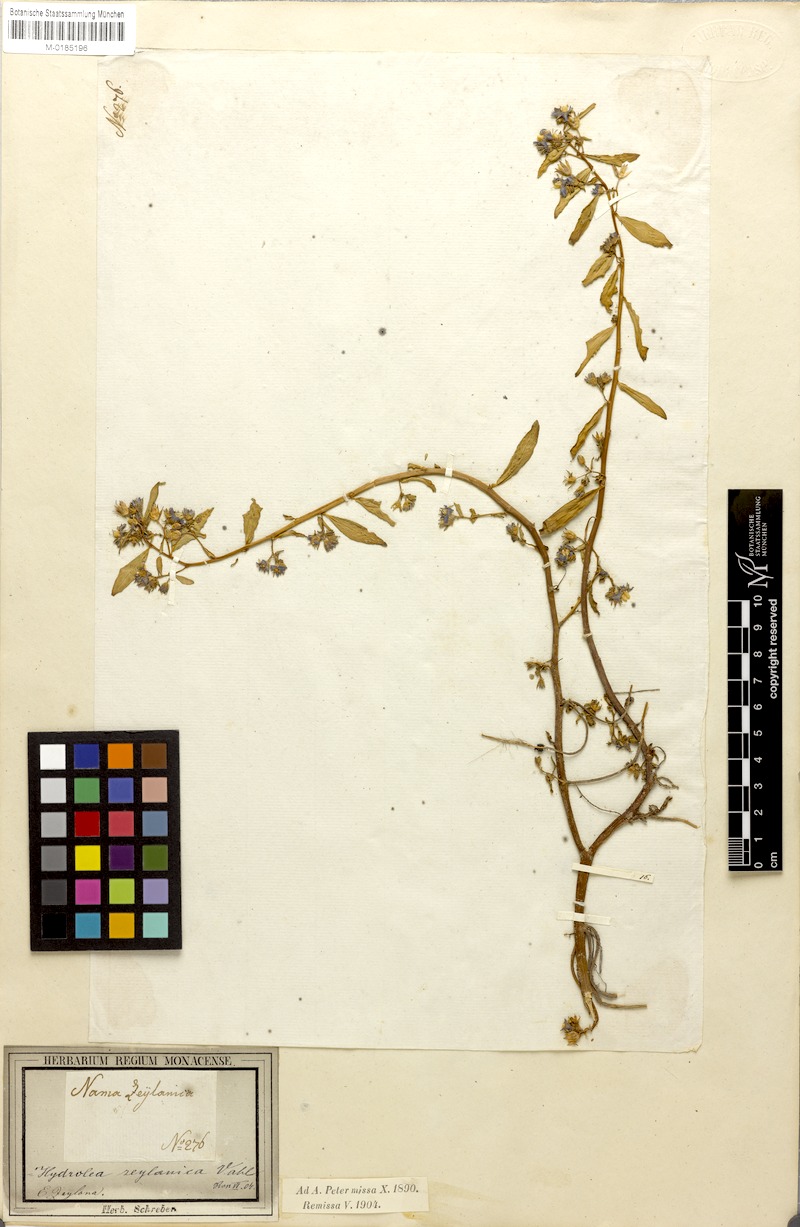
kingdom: Plantae
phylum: Tracheophyta
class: Magnoliopsida
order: Solanales
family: Hydroleaceae
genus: Hydrolea
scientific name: Hydrolea zeylanica
